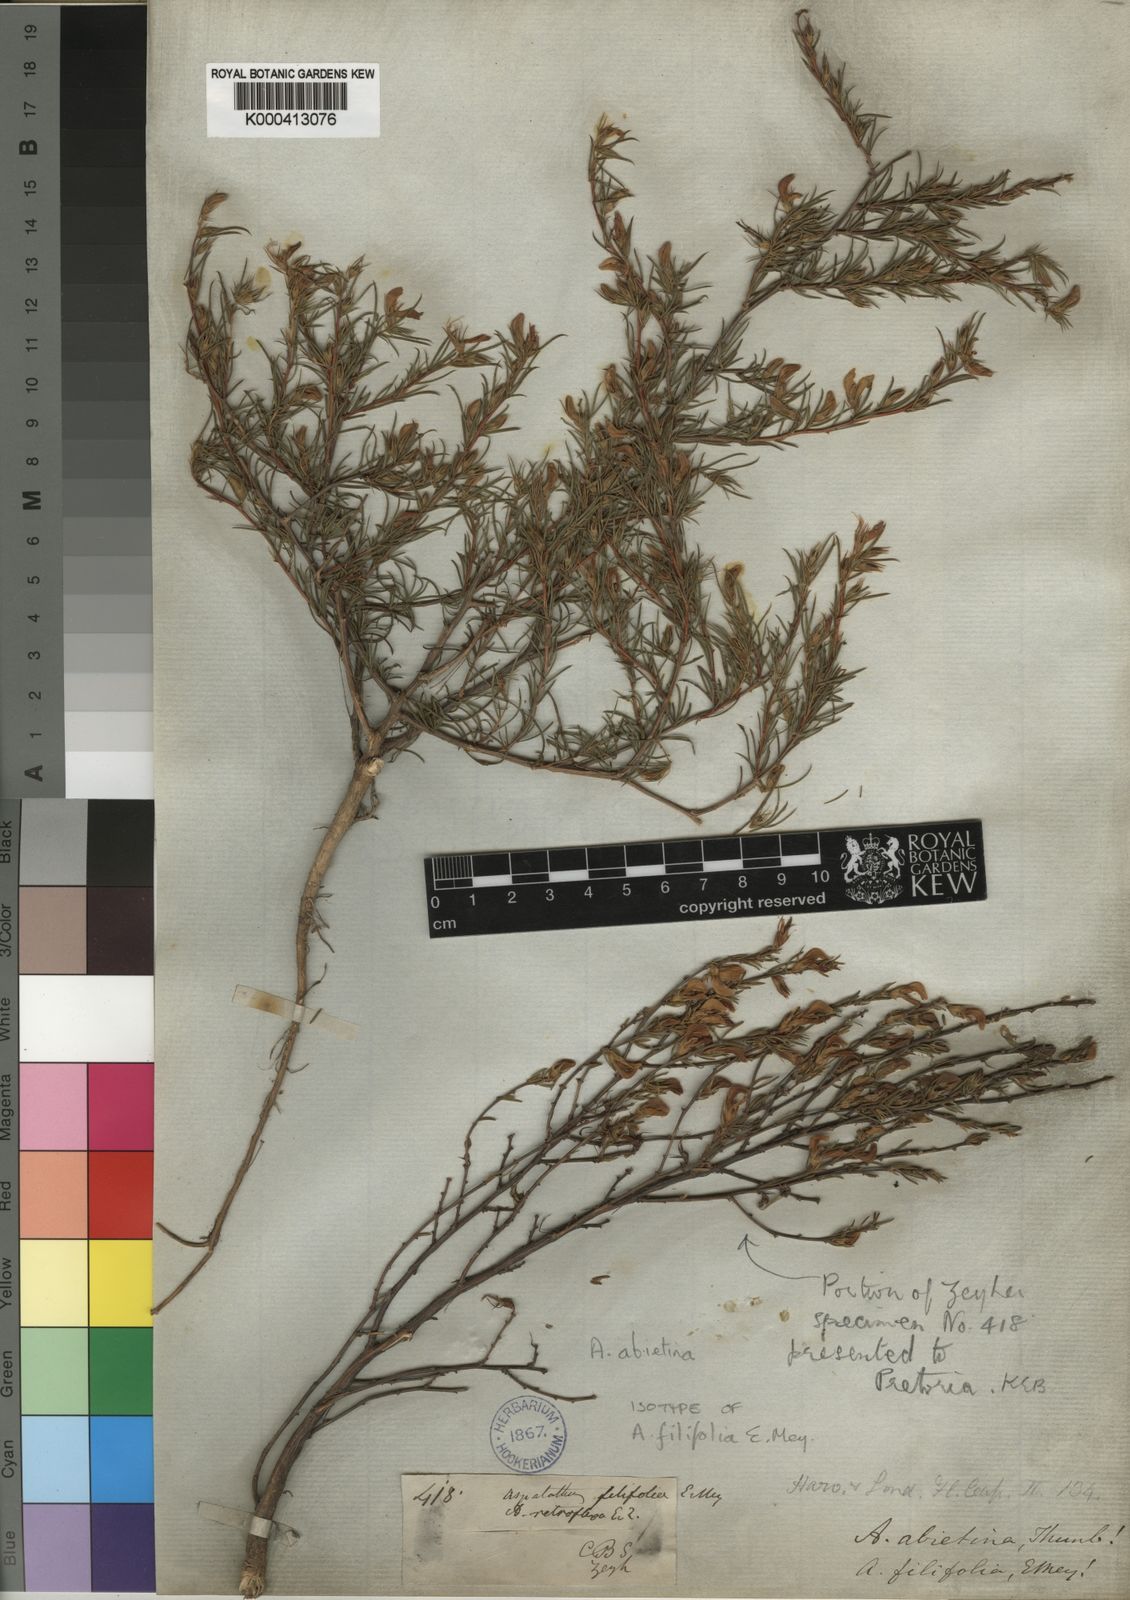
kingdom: Plantae
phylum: Tracheophyta
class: Magnoliopsida
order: Fabales
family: Fabaceae
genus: Aspalathus
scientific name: Aspalathus abietina
